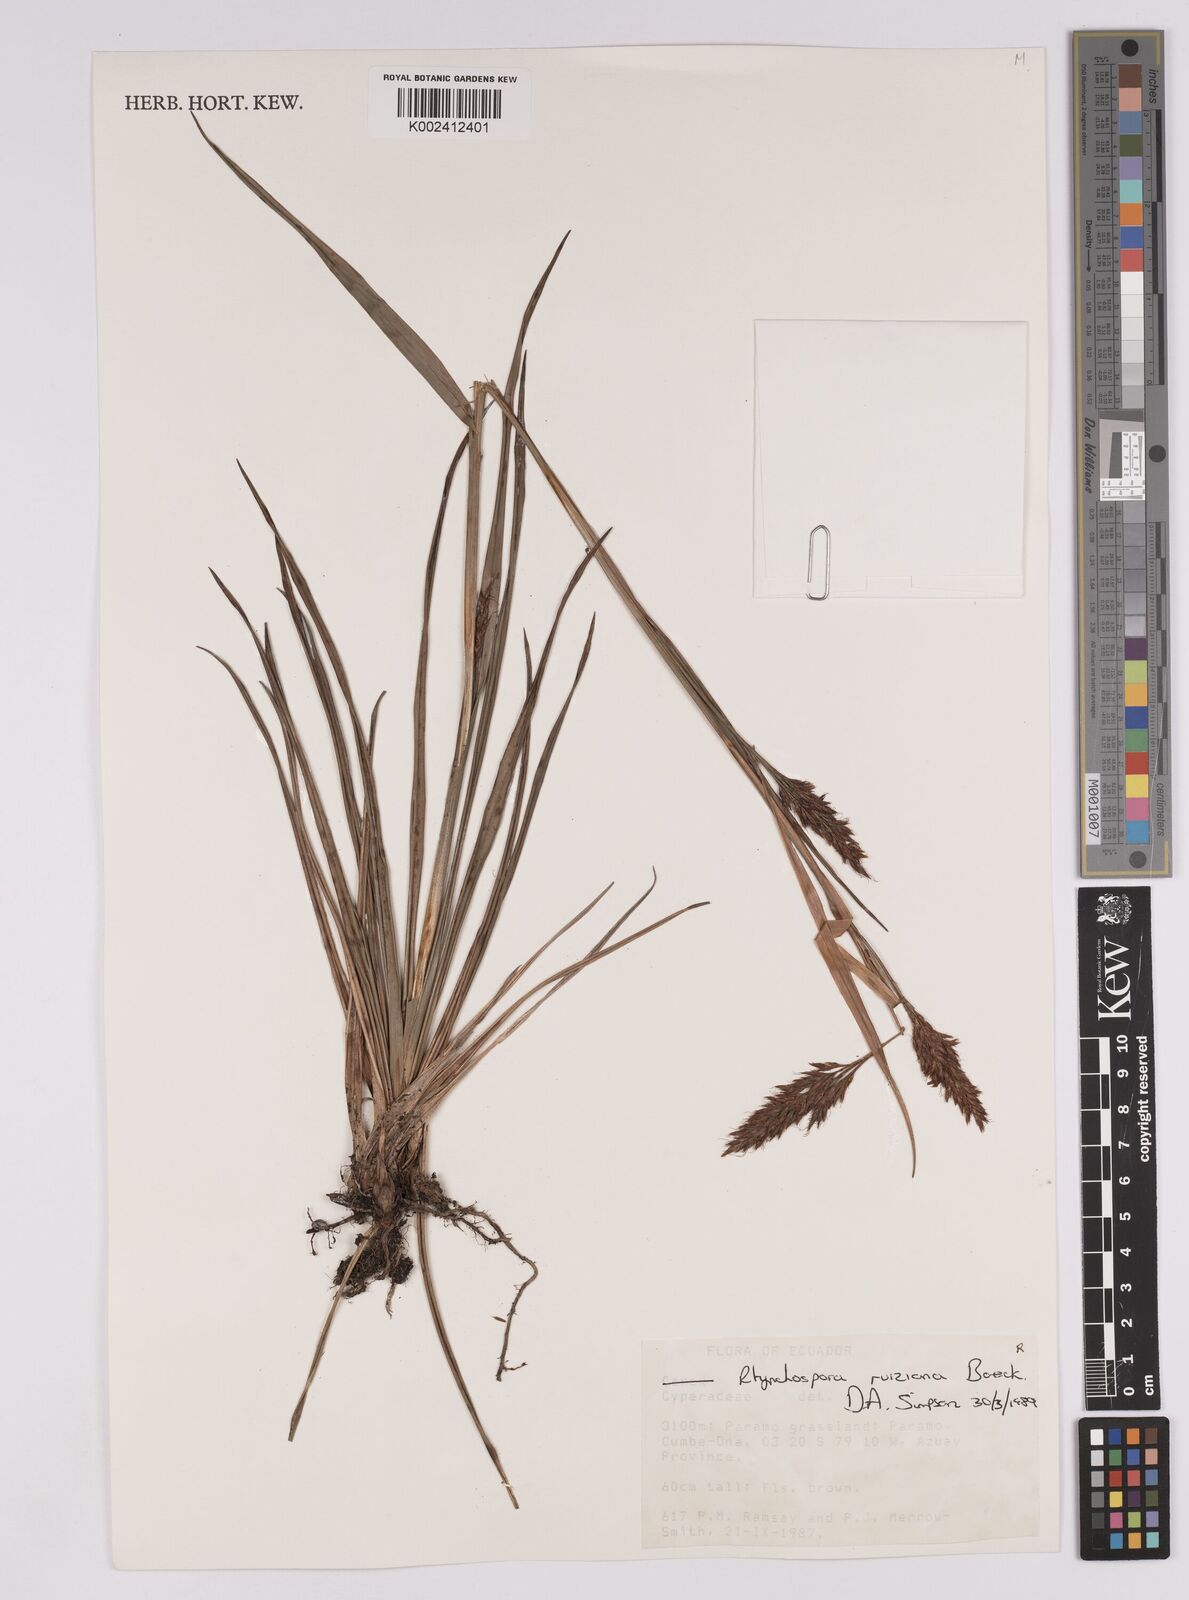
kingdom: Plantae
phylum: Tracheophyta
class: Liliopsida
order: Poales
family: Cyperaceae
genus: Rhynchospora
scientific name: Rhynchospora ruiziana
